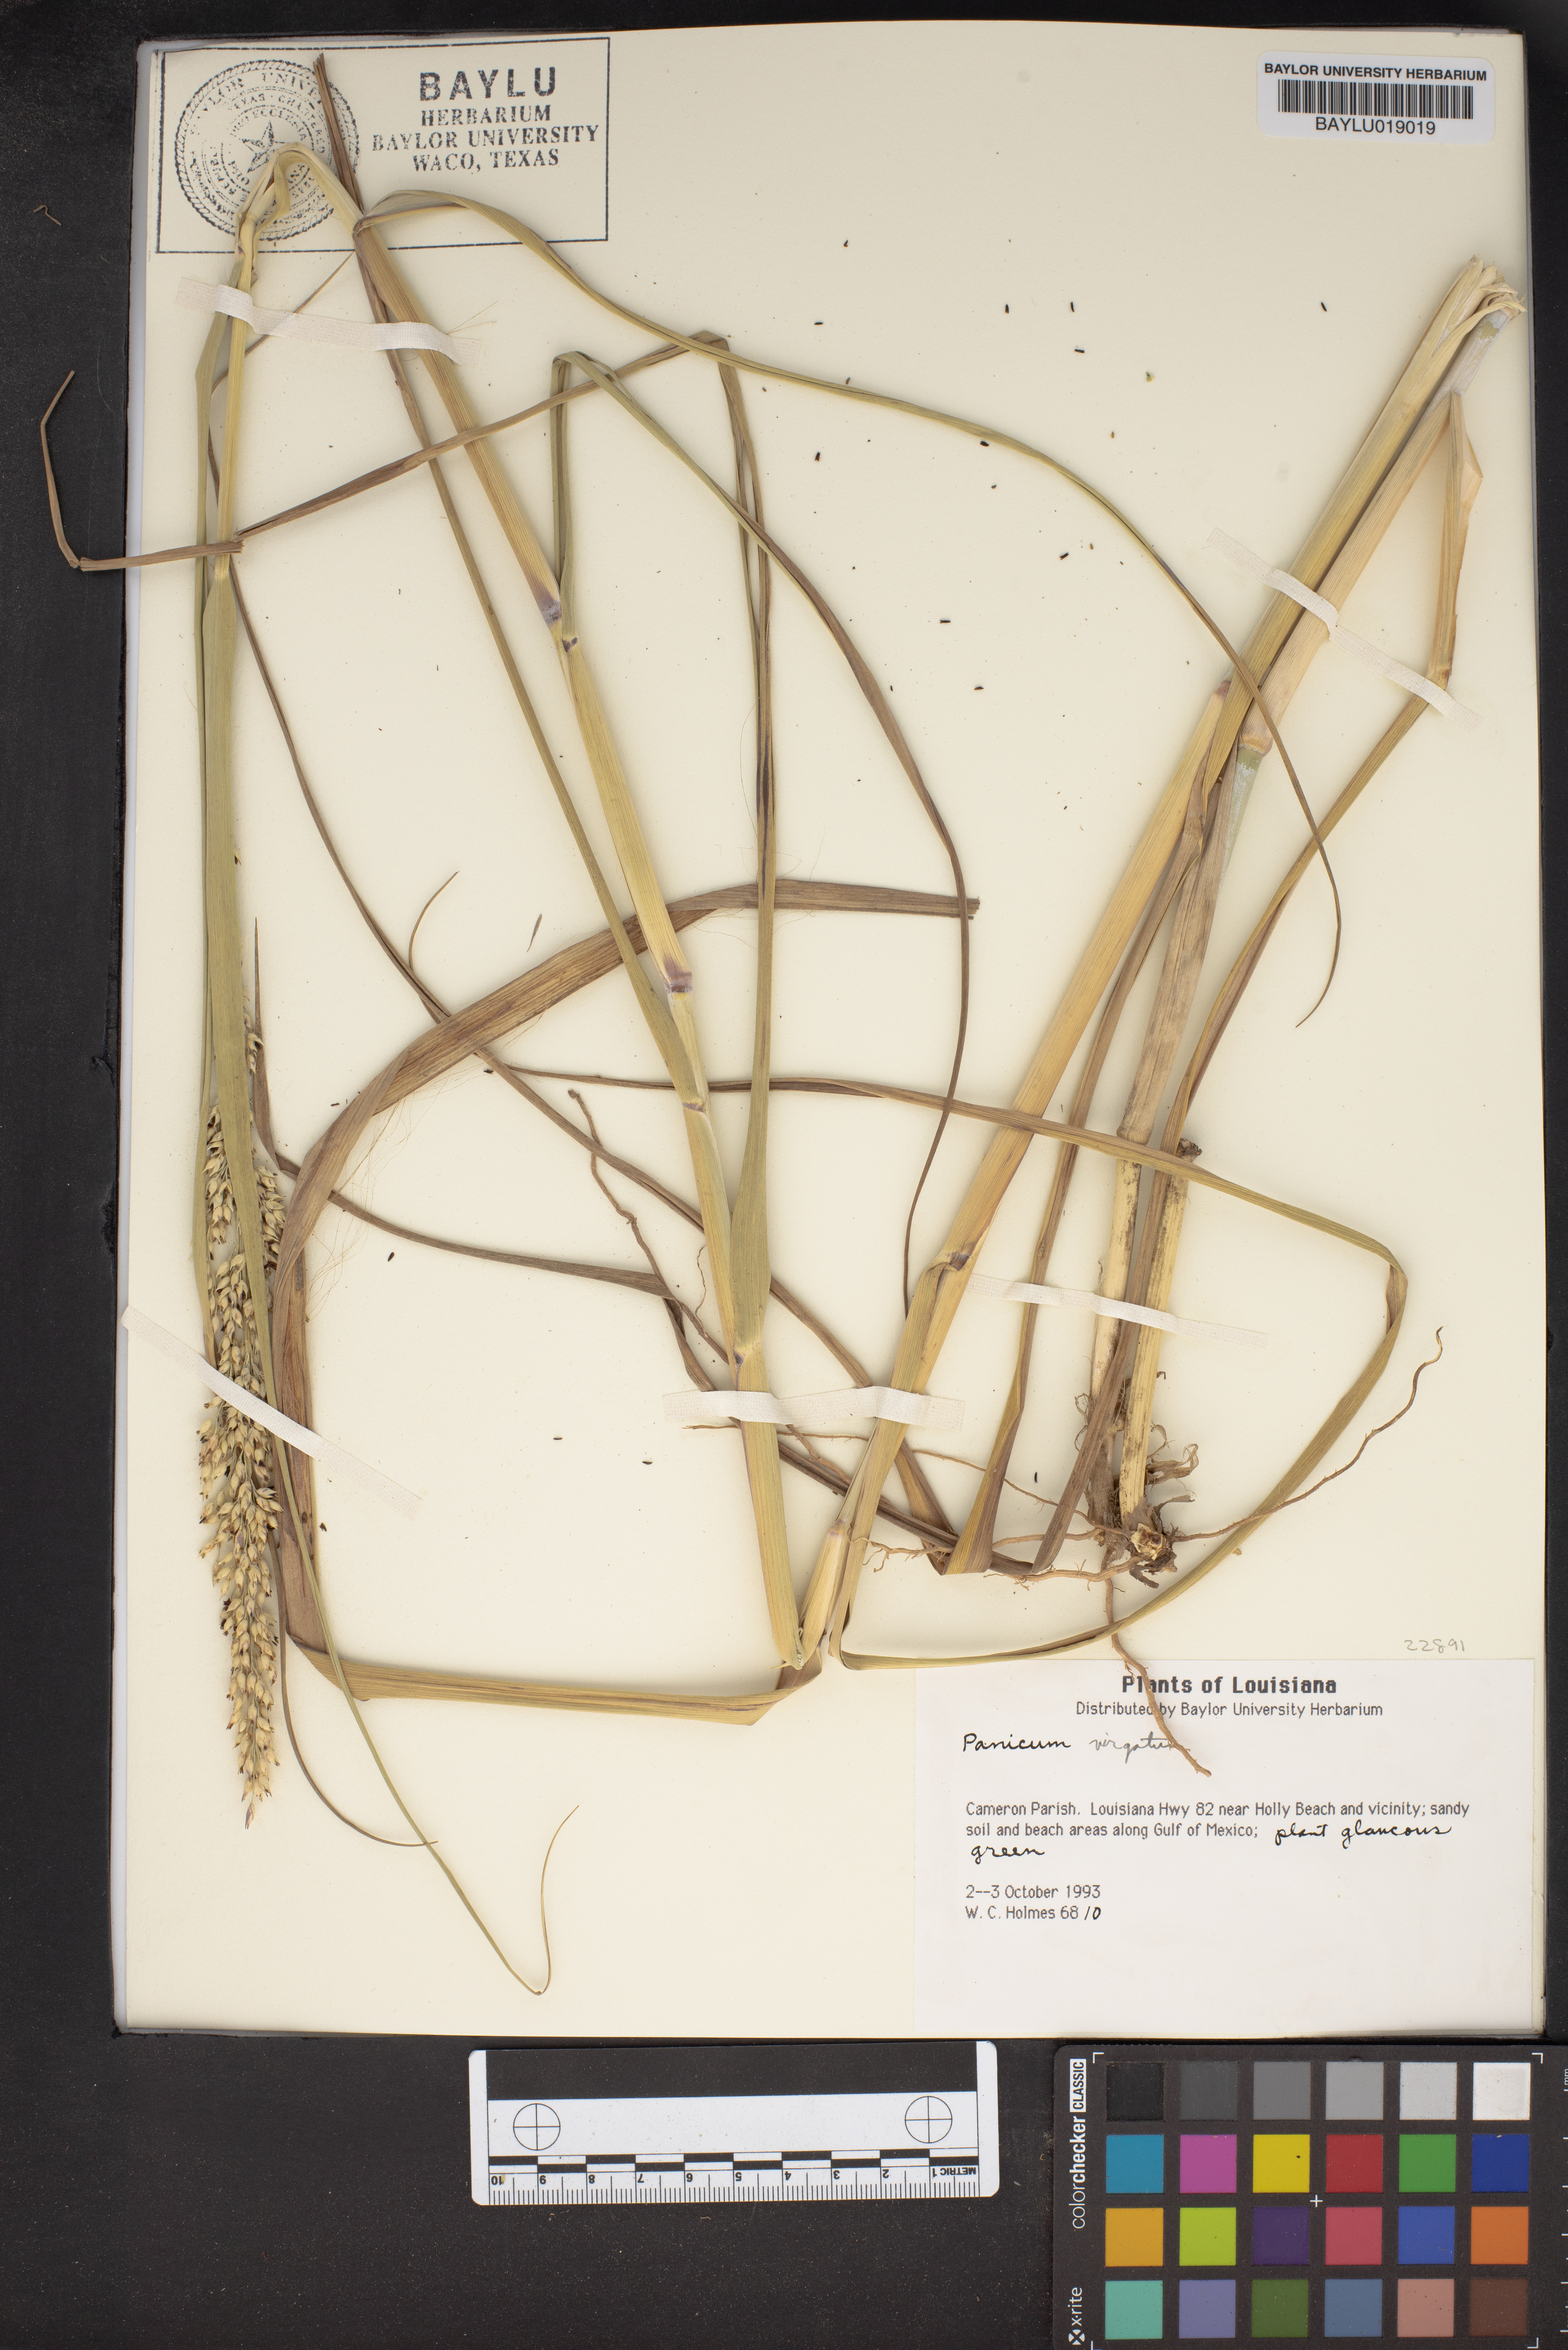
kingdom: Plantae
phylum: Tracheophyta
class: Liliopsida
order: Poales
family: Poaceae
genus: Panicum
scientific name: Panicum virgatum
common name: Switchgrass
